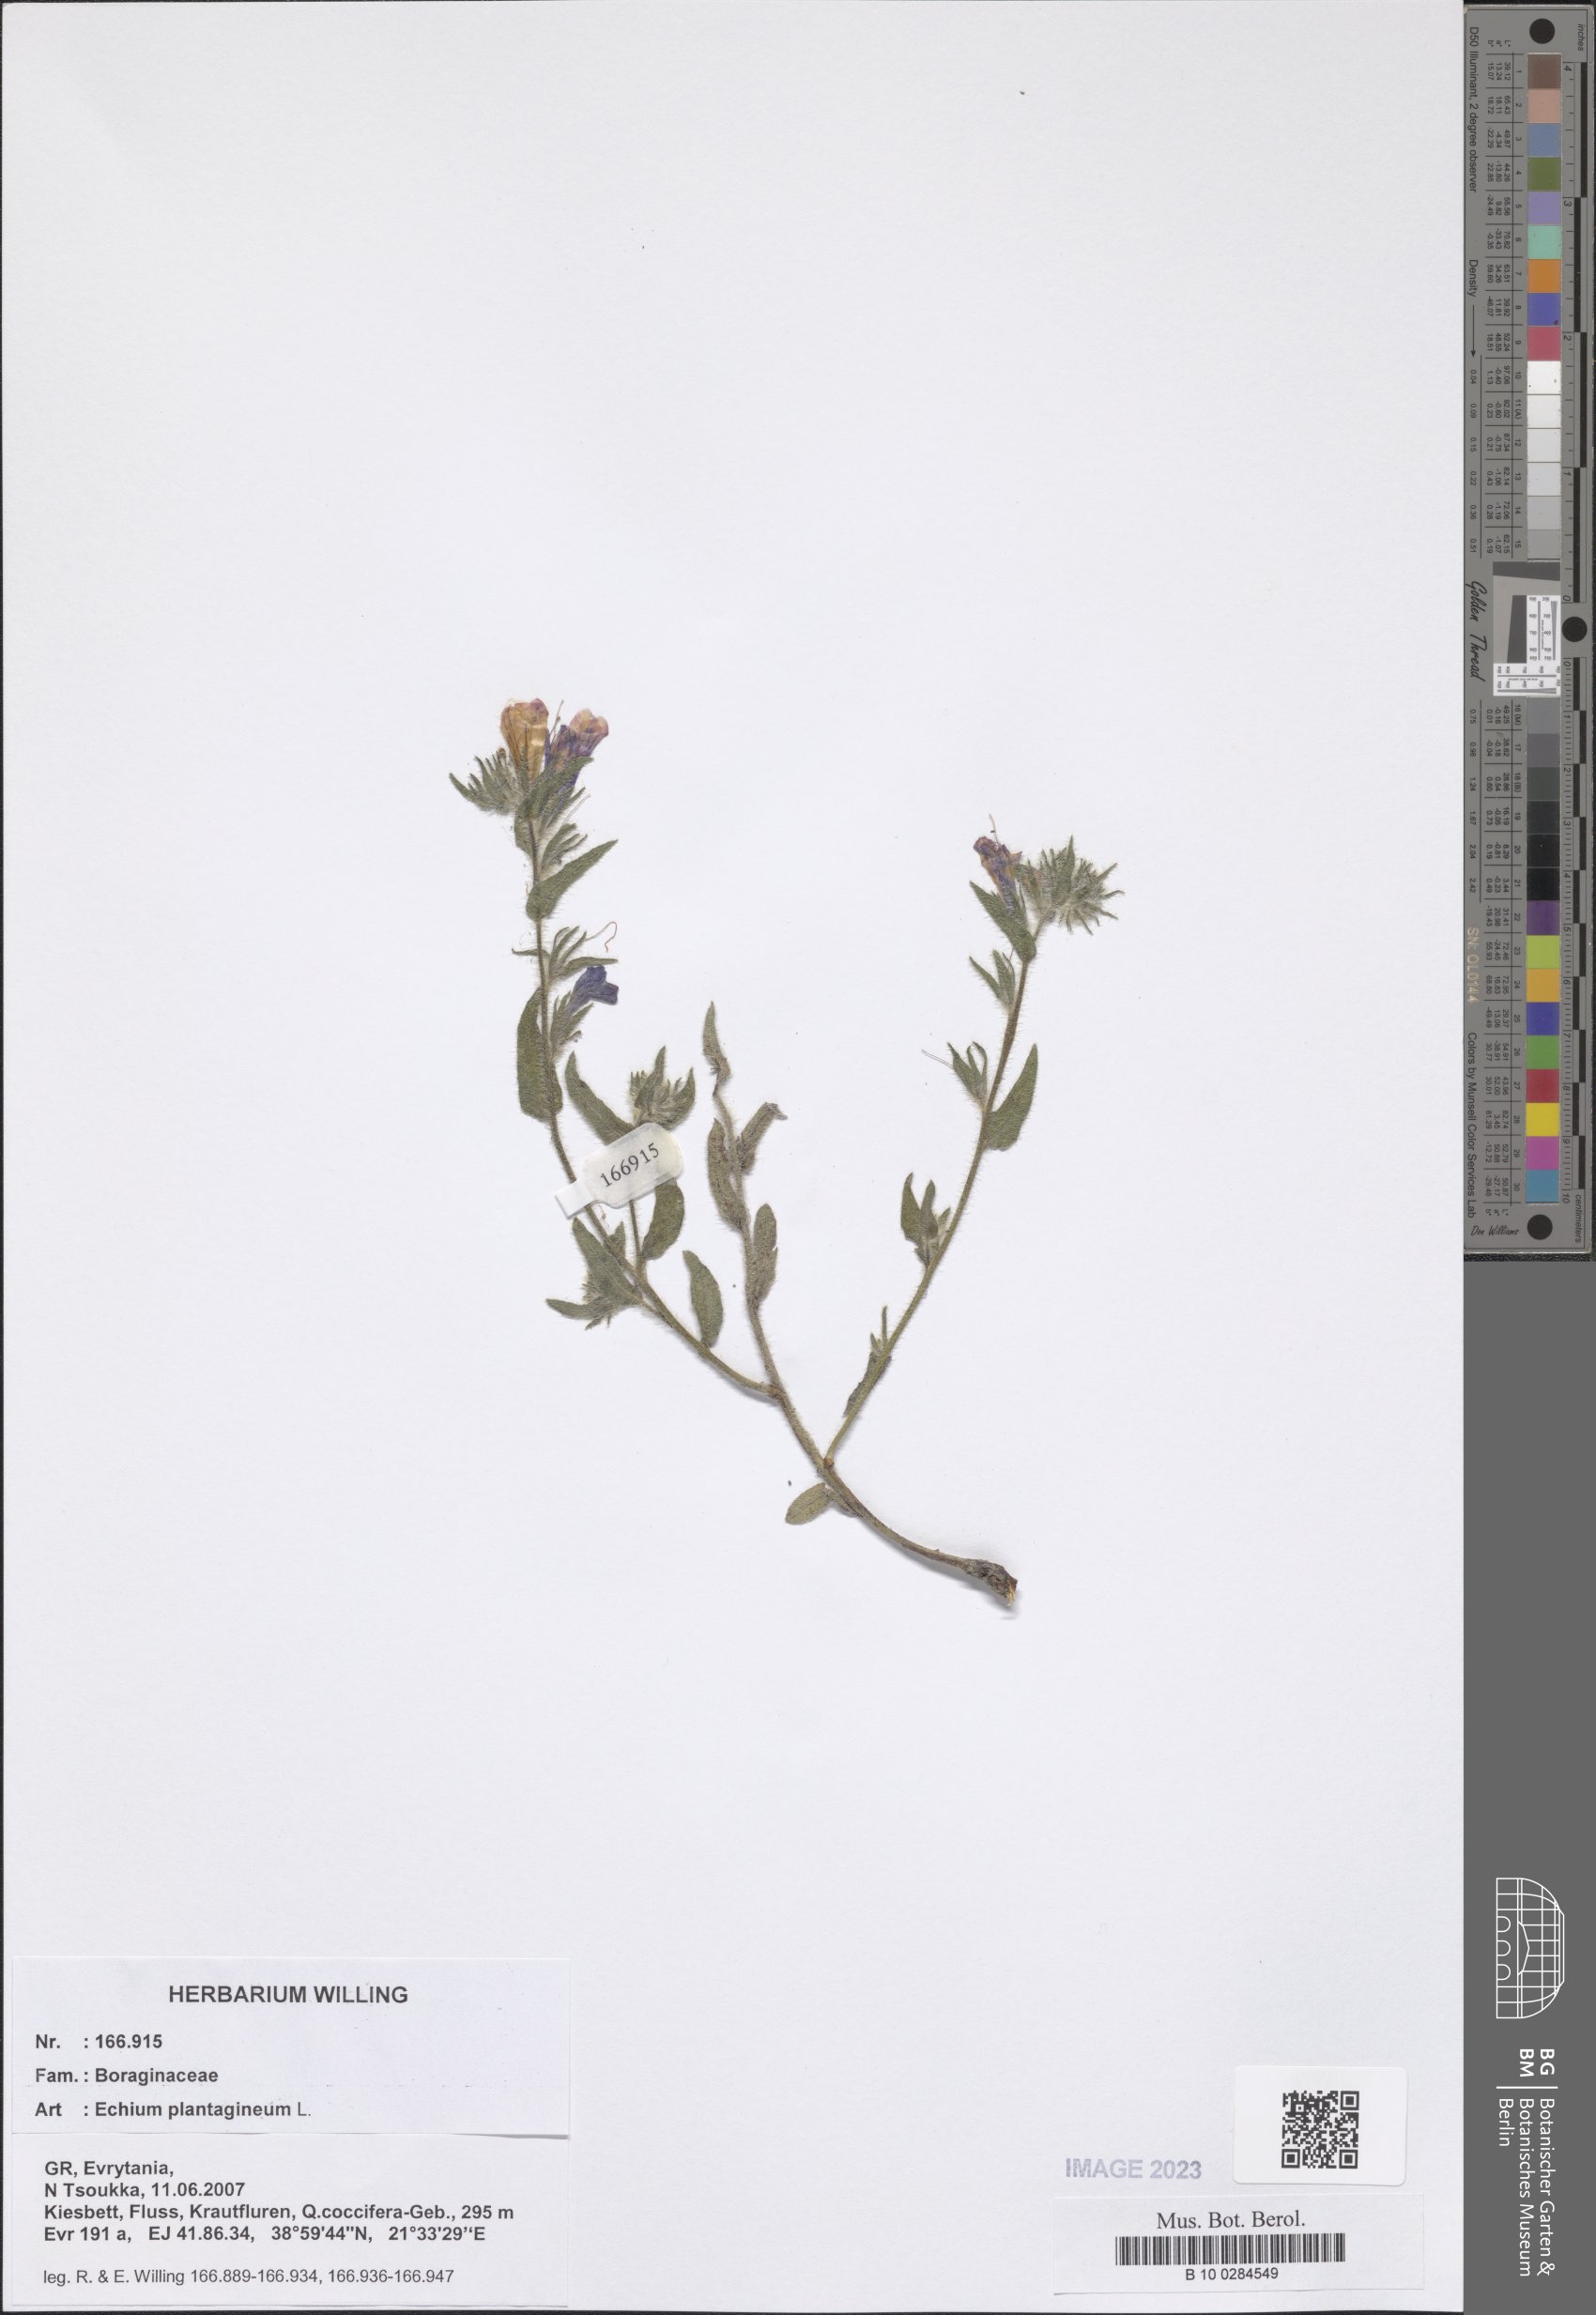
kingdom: Plantae
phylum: Tracheophyta
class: Magnoliopsida
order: Boraginales
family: Boraginaceae
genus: Echium
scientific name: Echium plantagineum
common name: Purple viper's-bugloss
